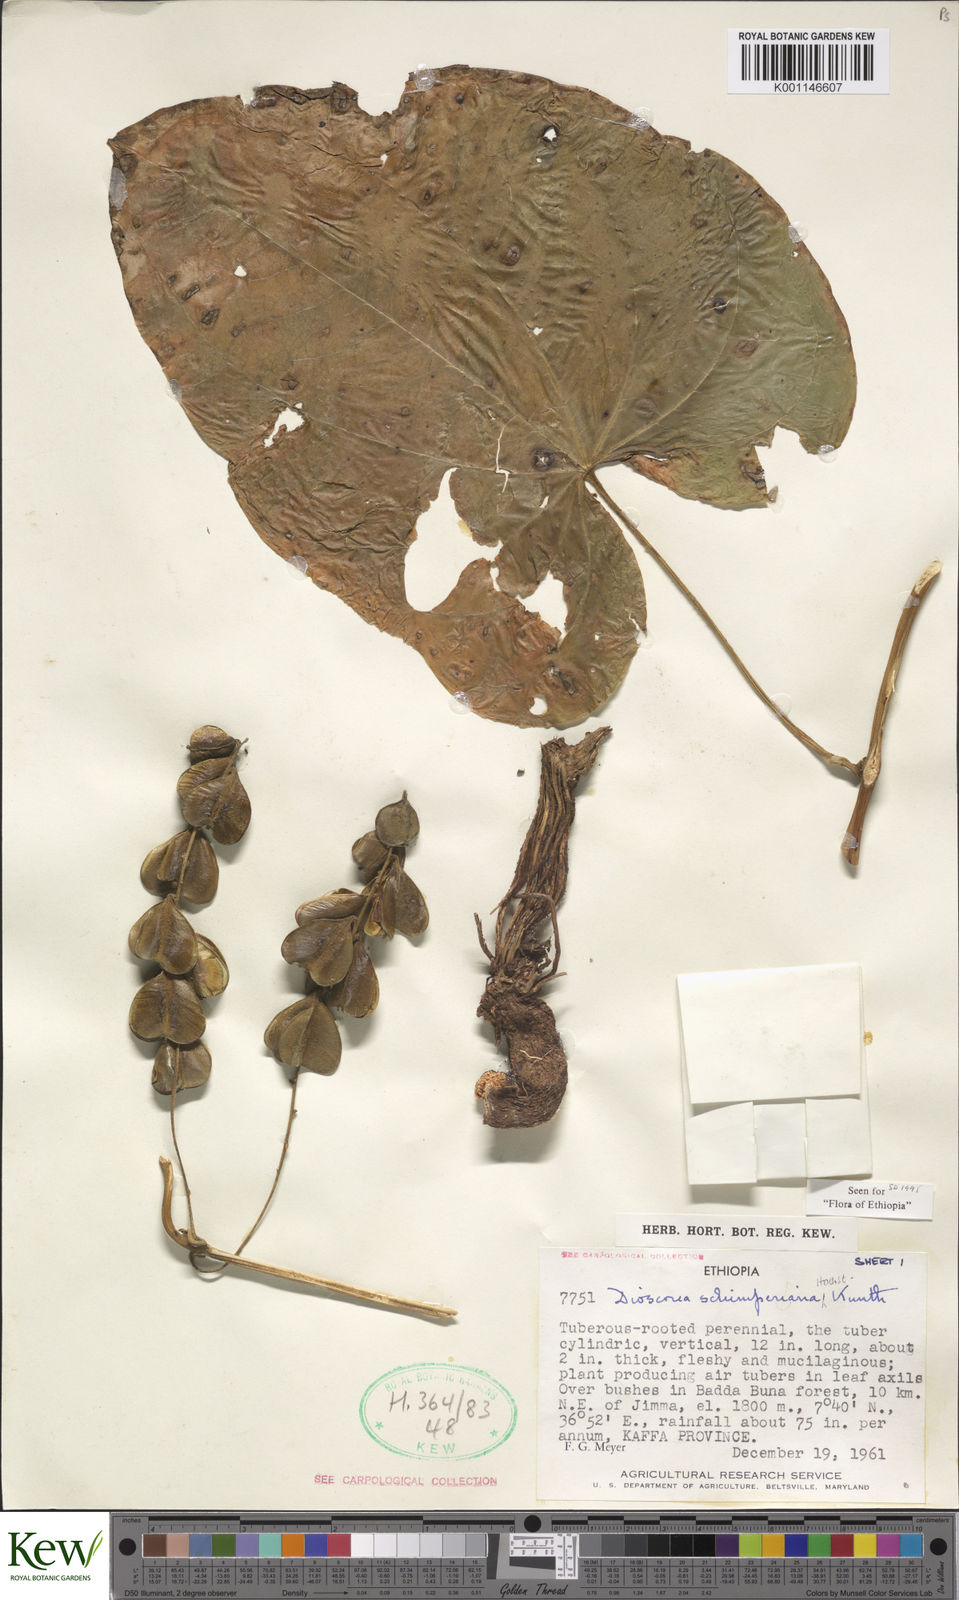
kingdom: Plantae
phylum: Tracheophyta
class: Liliopsida
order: Dioscoreales
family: Dioscoreaceae
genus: Dioscorea
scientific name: Dioscorea schimperiana
